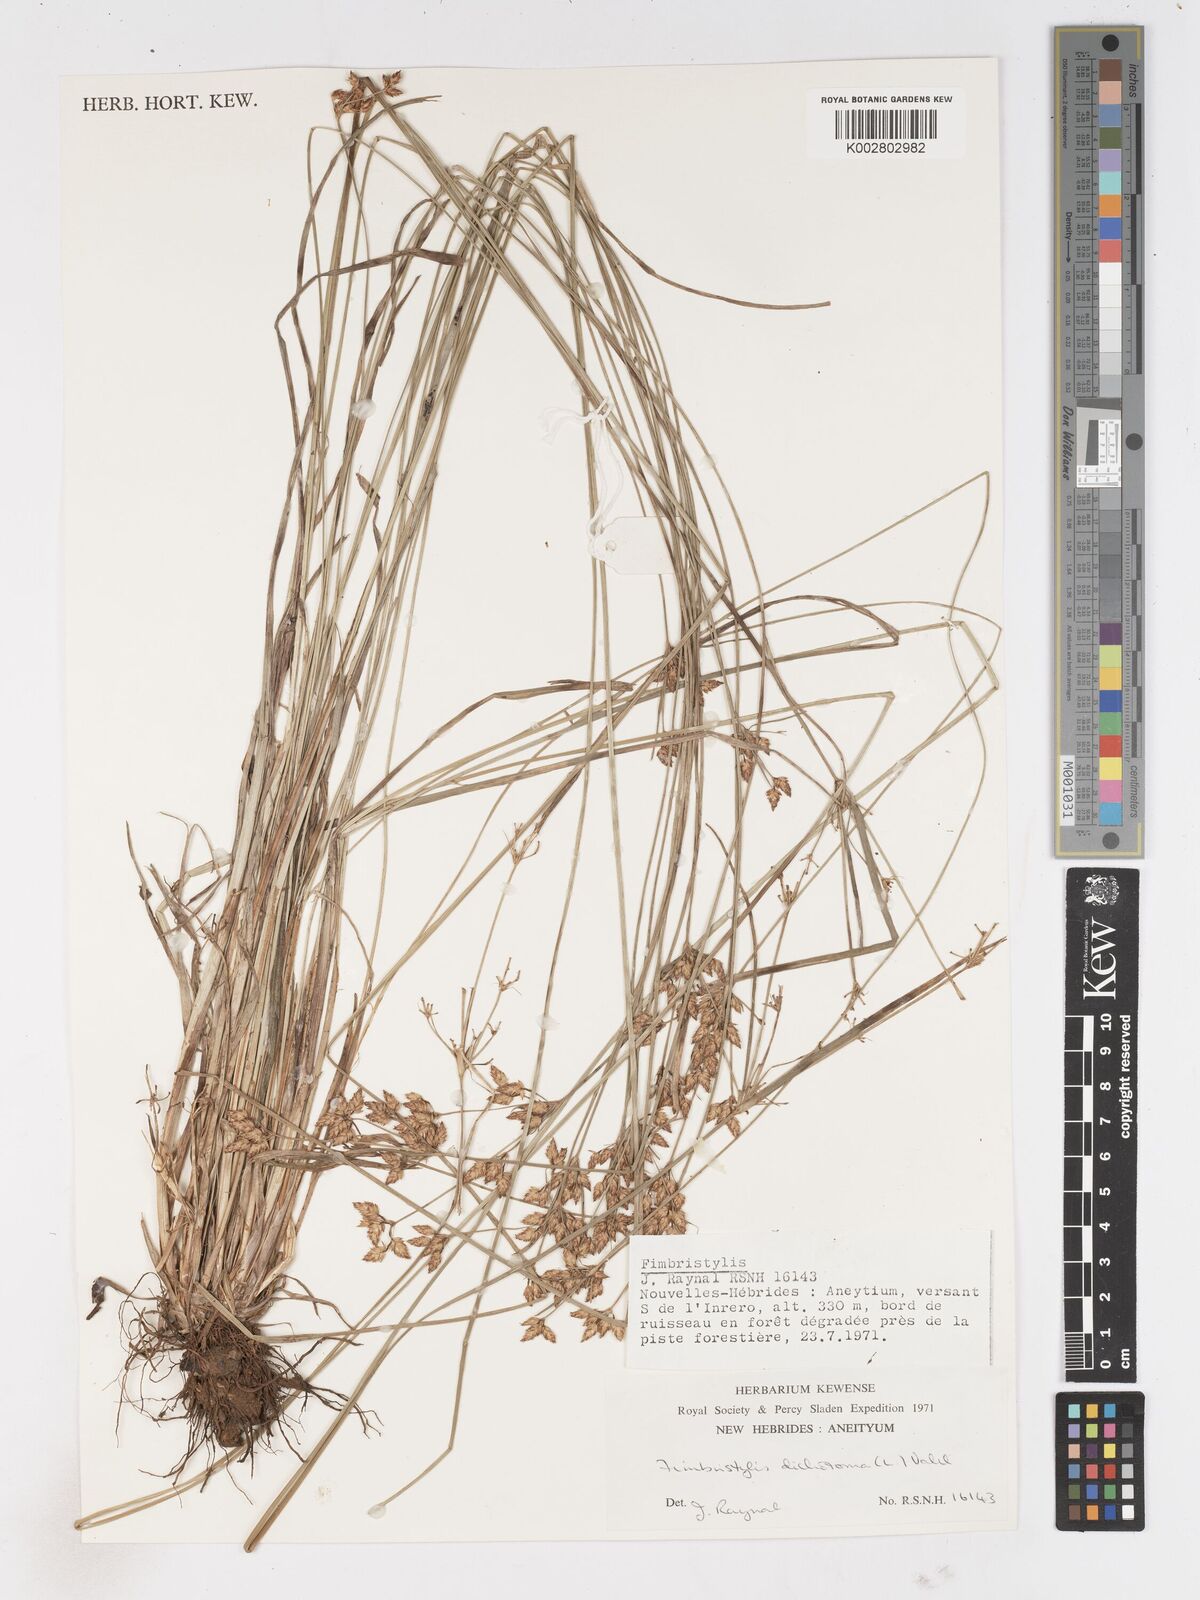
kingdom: Plantae
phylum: Tracheophyta
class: Liliopsida
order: Poales
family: Cyperaceae
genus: Fimbristylis
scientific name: Fimbristylis dichotoma
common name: Forked fimbry
